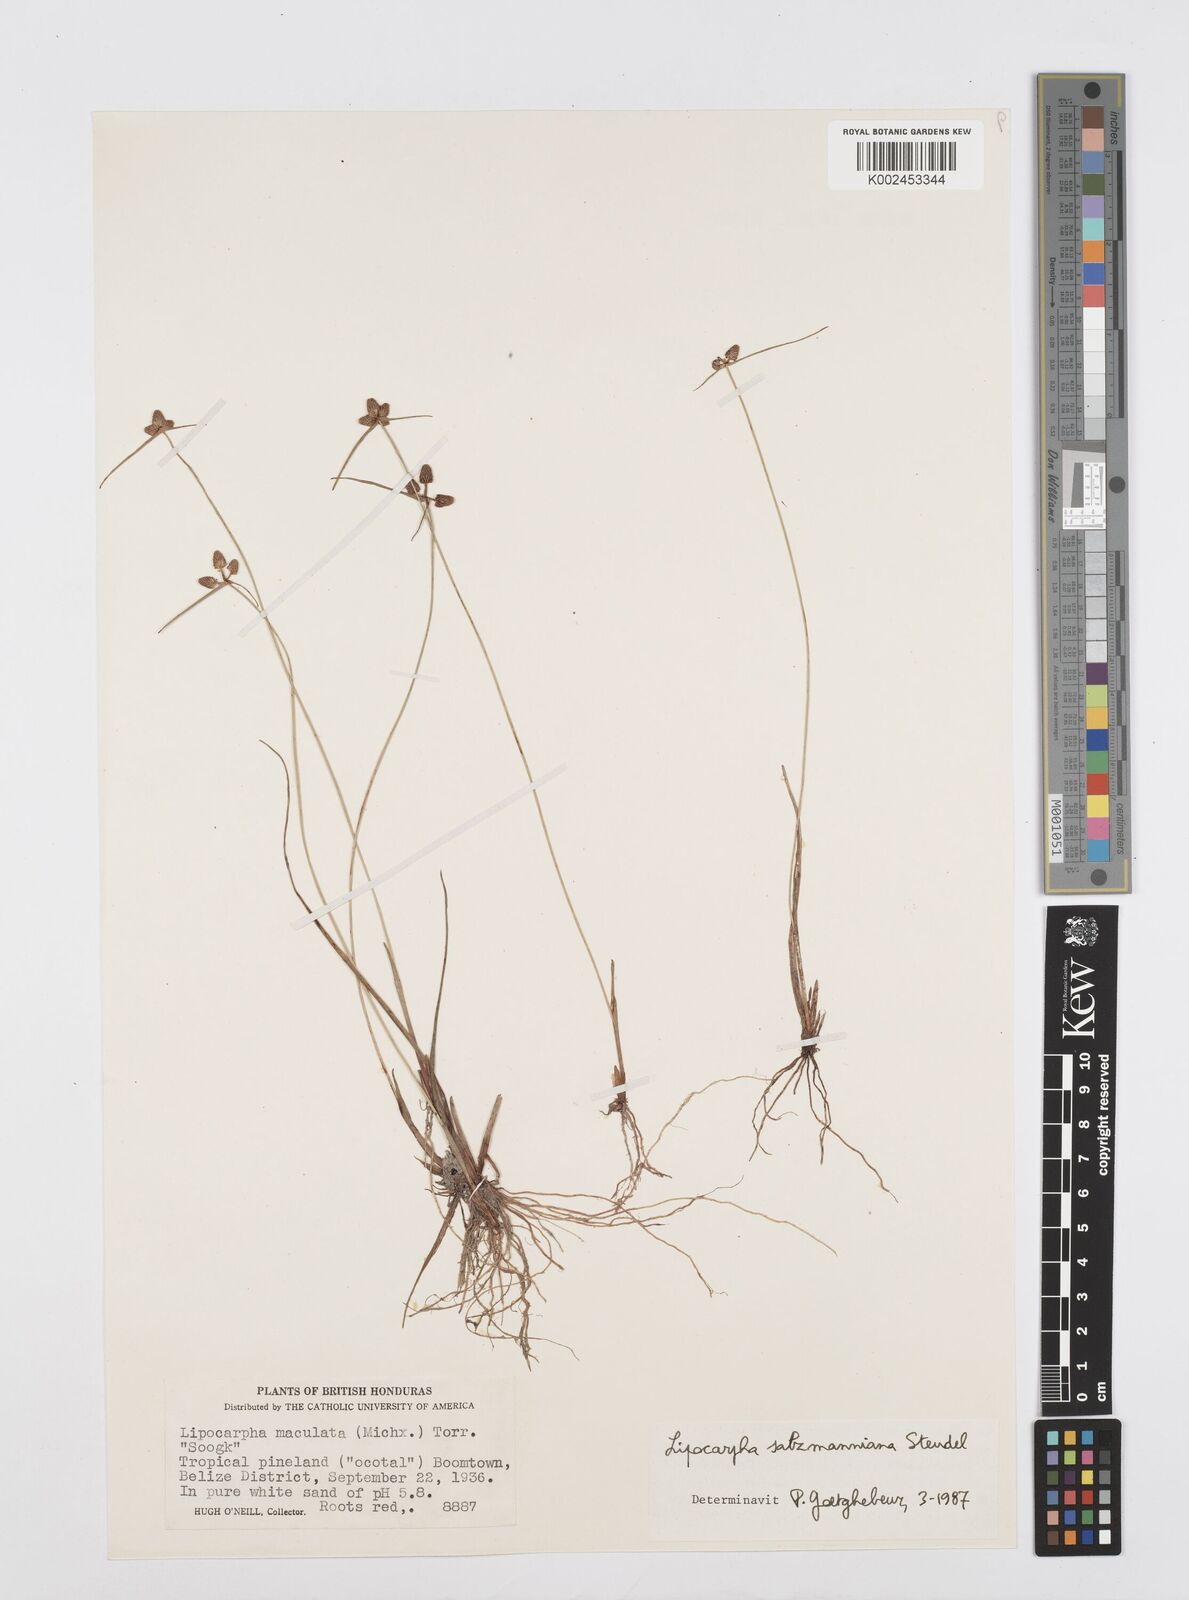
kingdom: Plantae
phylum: Tracheophyta
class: Liliopsida
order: Poales
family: Cyperaceae
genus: Cyperus
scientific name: Cyperus salzmannianus
